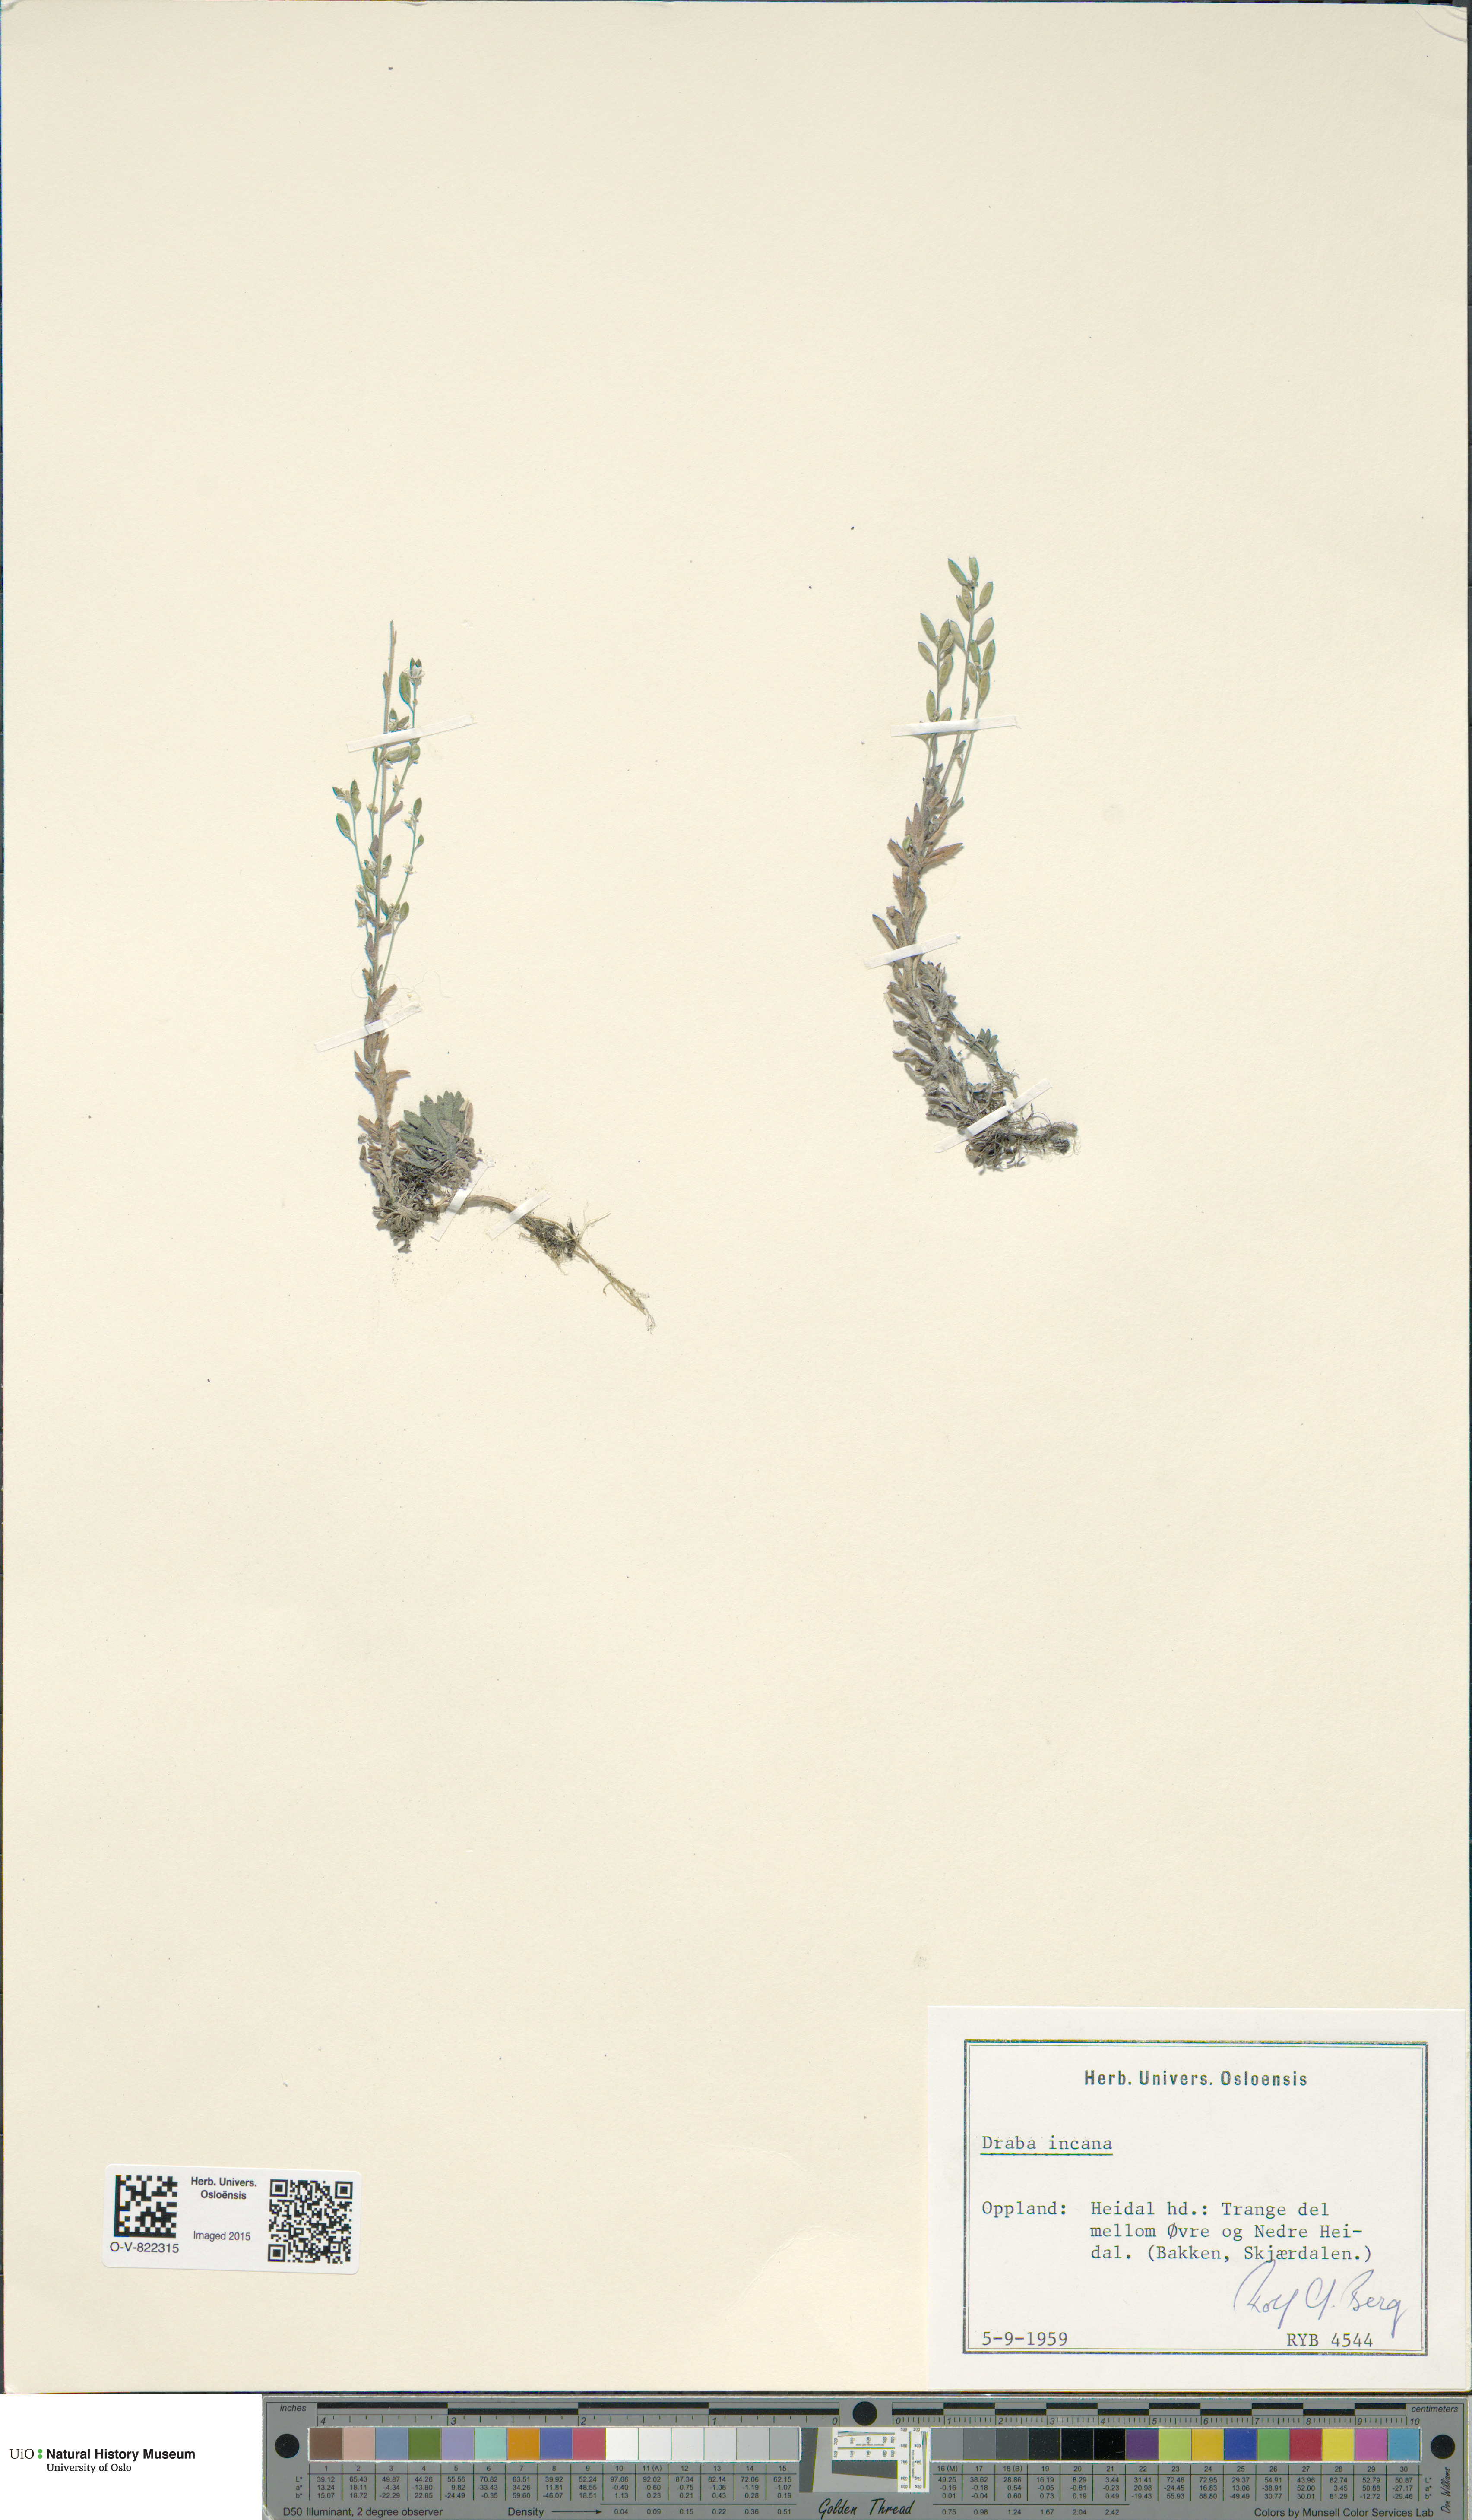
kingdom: Plantae
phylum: Tracheophyta
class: Magnoliopsida
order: Brassicales
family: Brassicaceae
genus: Draba
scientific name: Draba incana
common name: Hoary whitlow-grass
